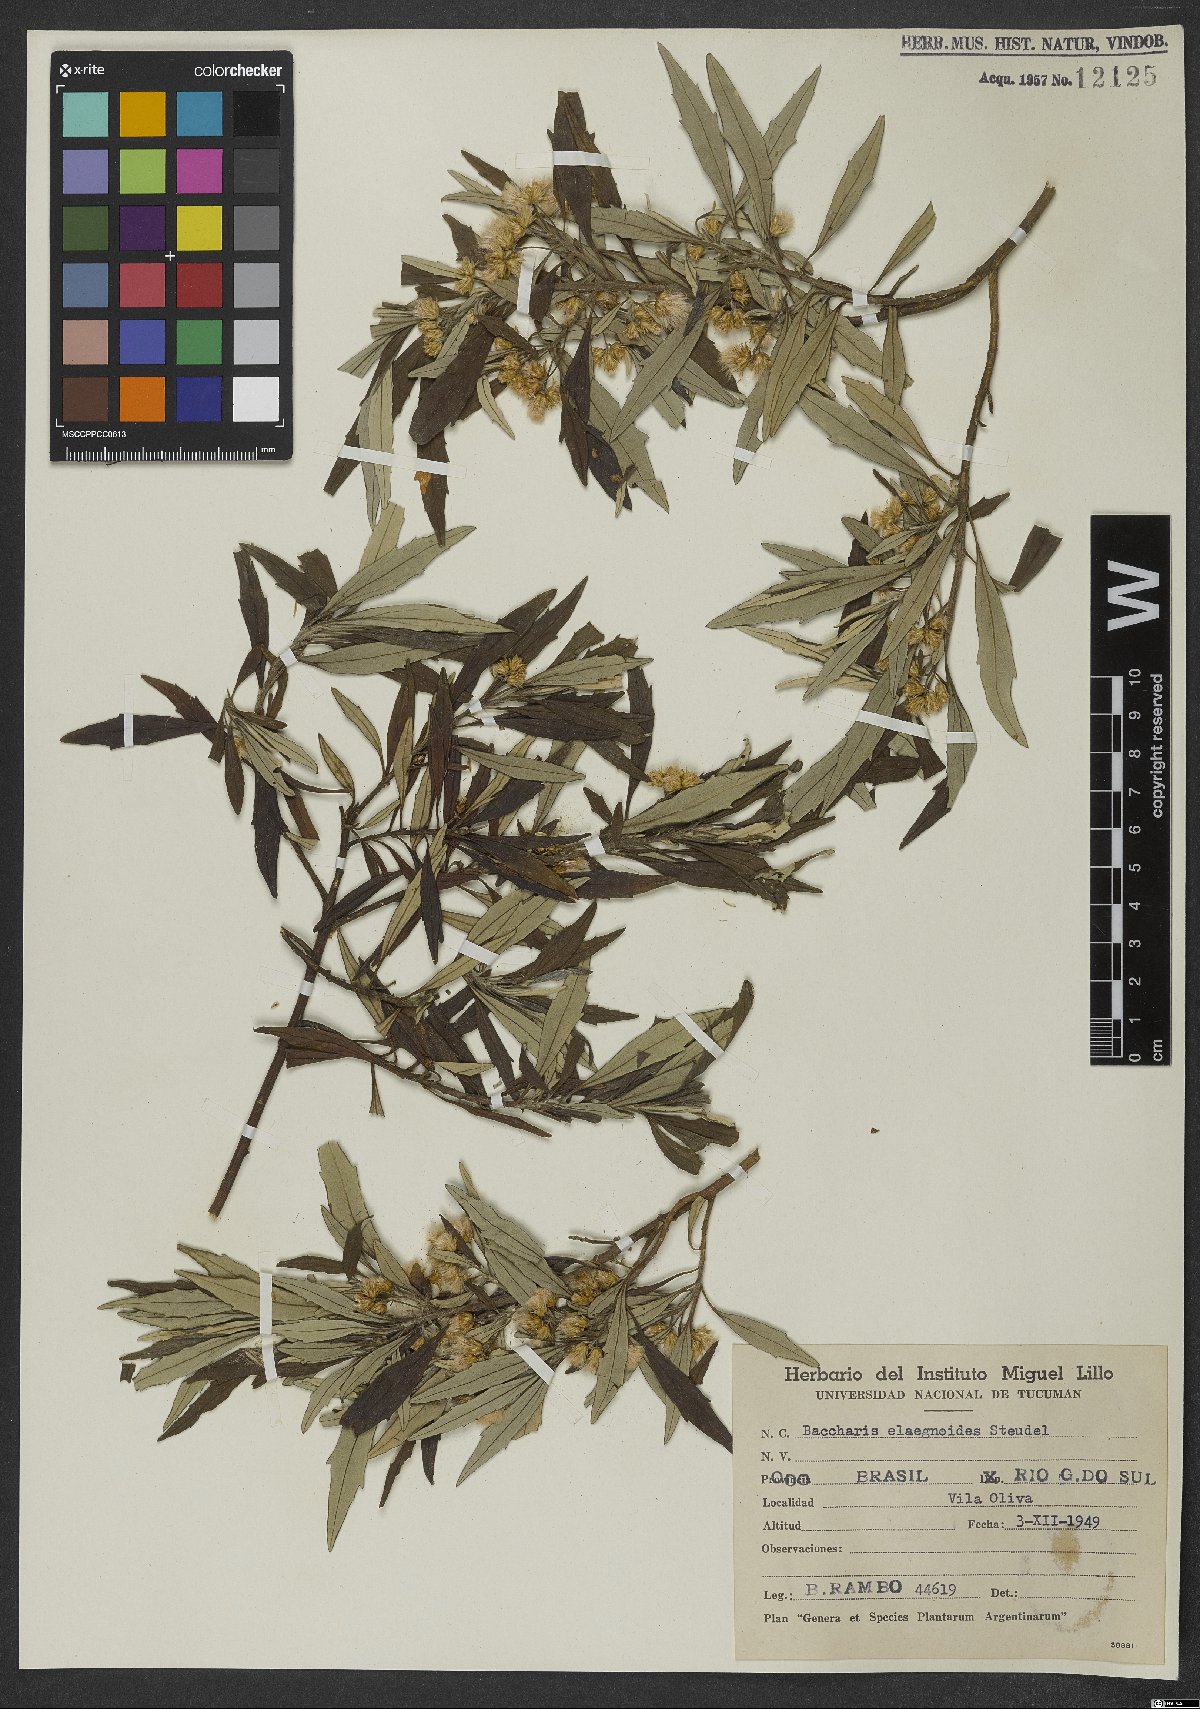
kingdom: Plantae
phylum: Tracheophyta
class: Magnoliopsida
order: Asterales
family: Asteraceae
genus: Baccharis
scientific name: Baccharis montana
